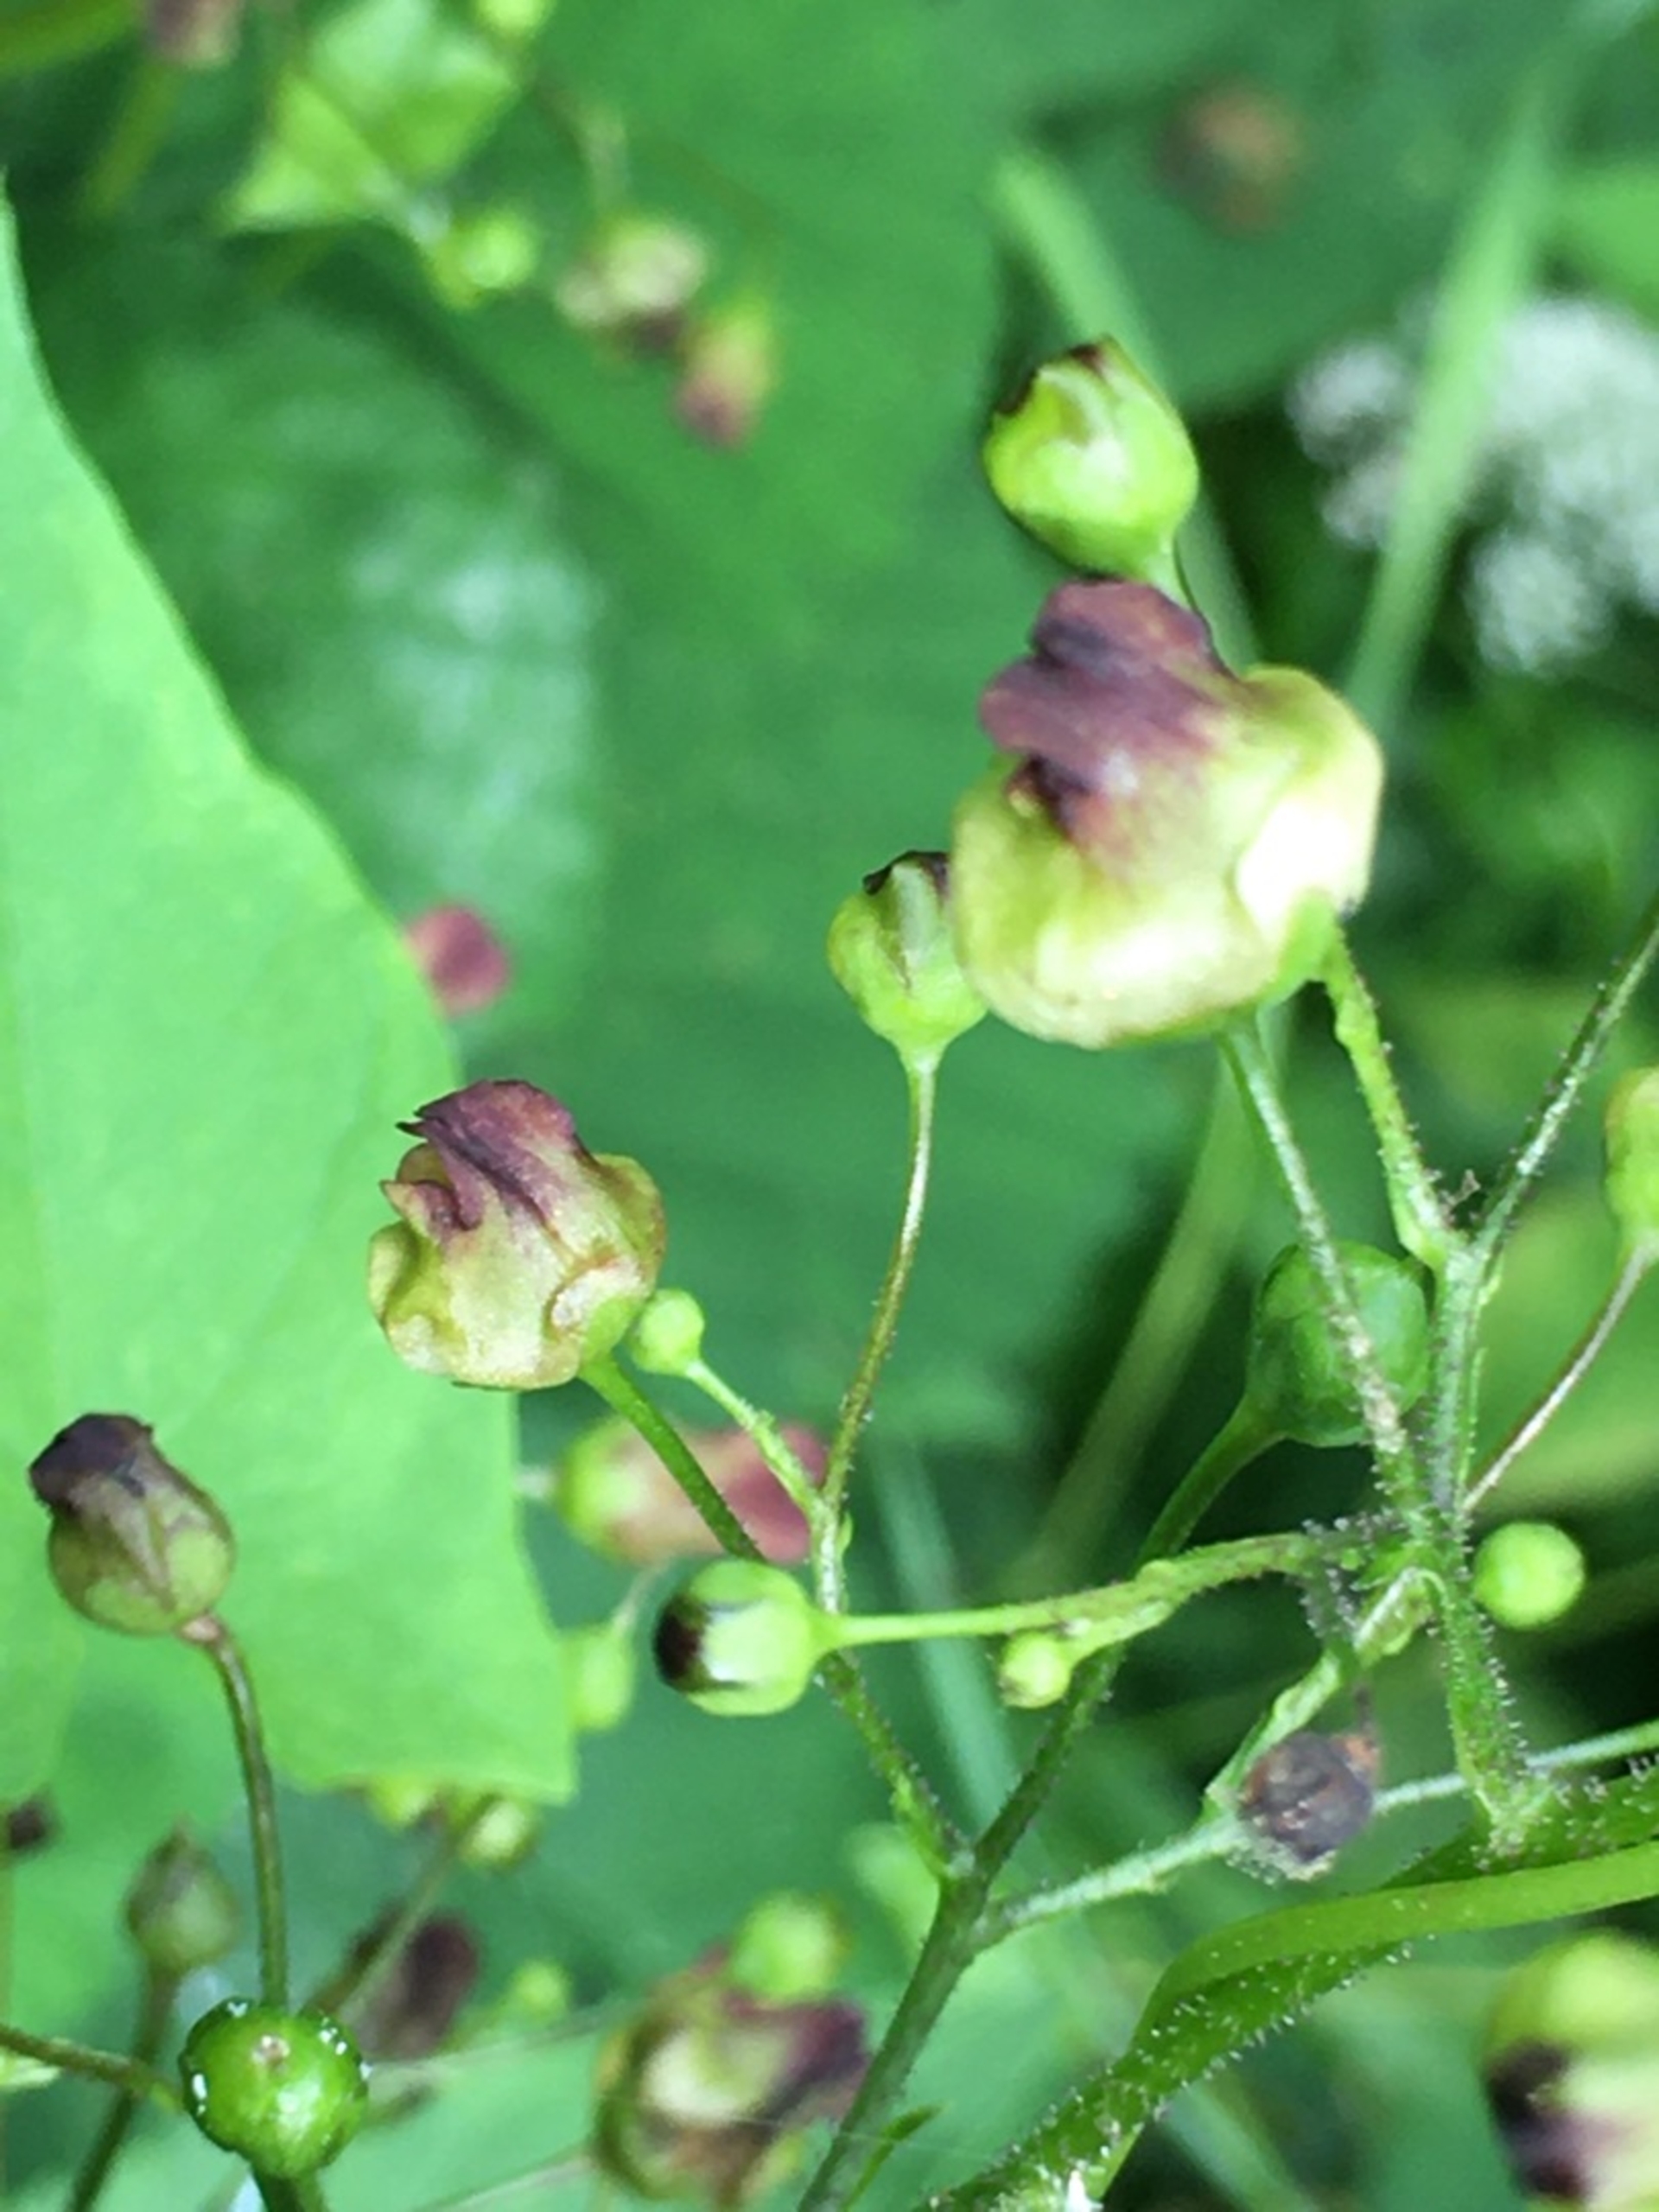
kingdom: Animalia
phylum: Arthropoda
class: Insecta
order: Diptera
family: Cecidomyiidae
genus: Contarinia
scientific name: Contarinia scrophulariae
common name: Brunrodsgalmyg
